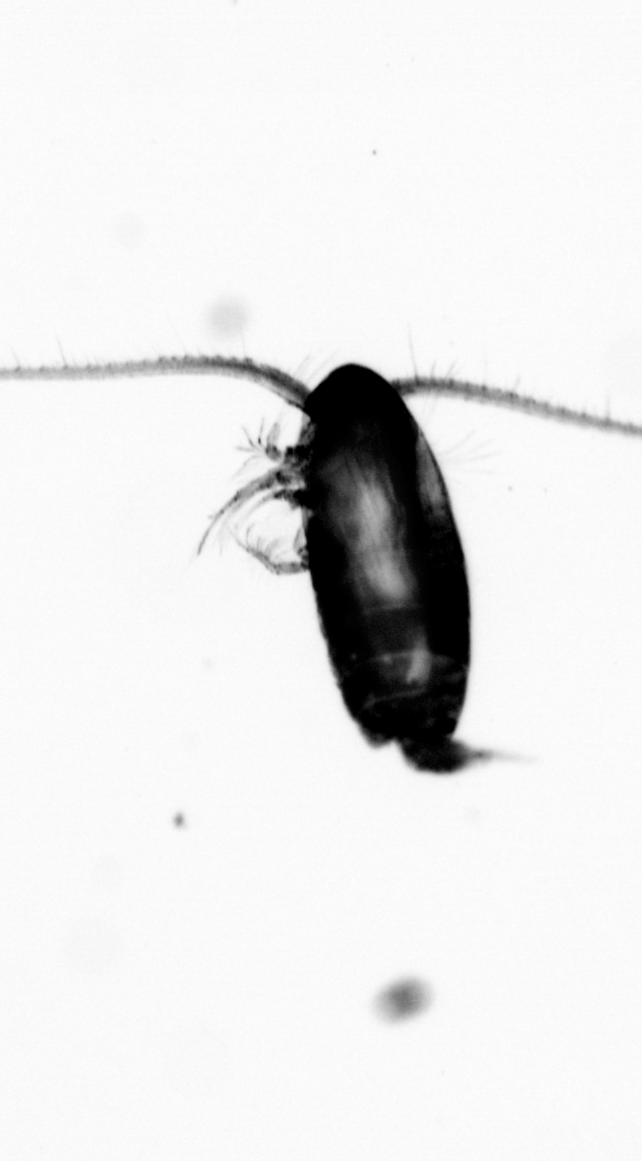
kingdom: Animalia
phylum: Arthropoda
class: Copepoda
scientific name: Copepoda
